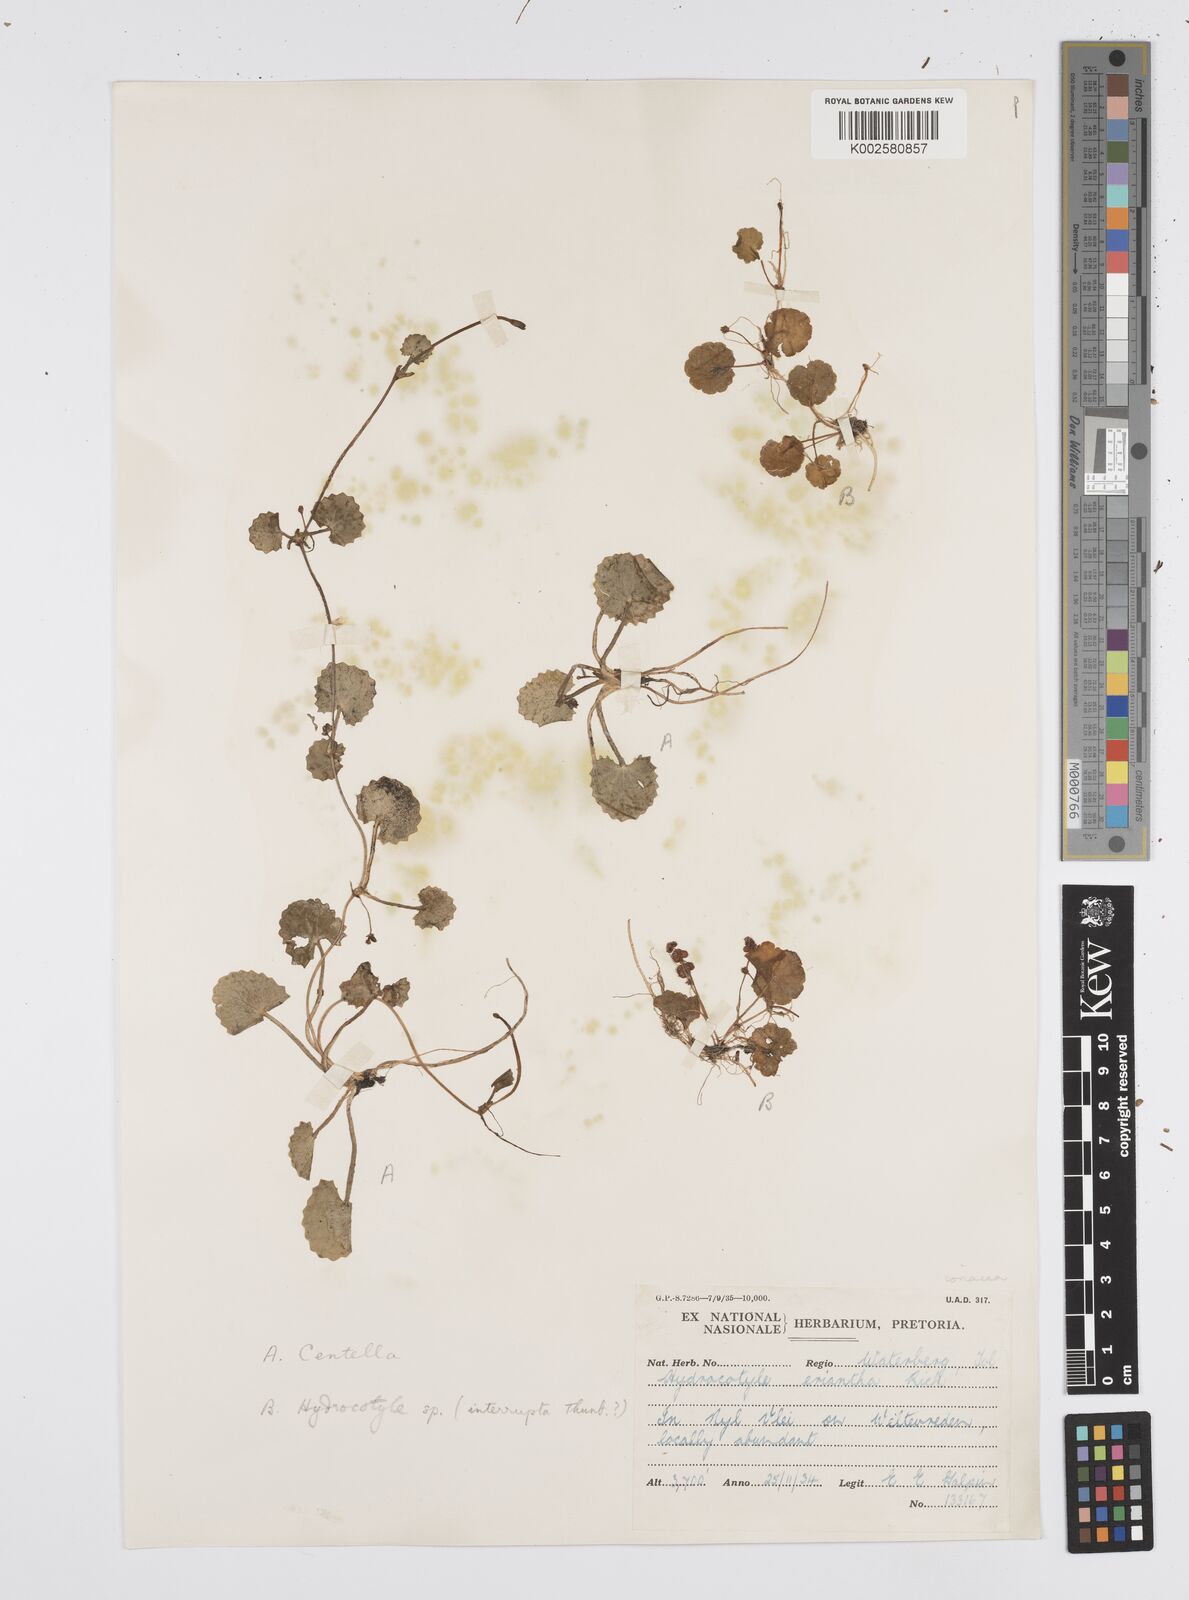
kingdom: Plantae
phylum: Tracheophyta
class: Magnoliopsida
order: Apiales
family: Apiaceae
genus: Centella
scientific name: Centella coriacea
